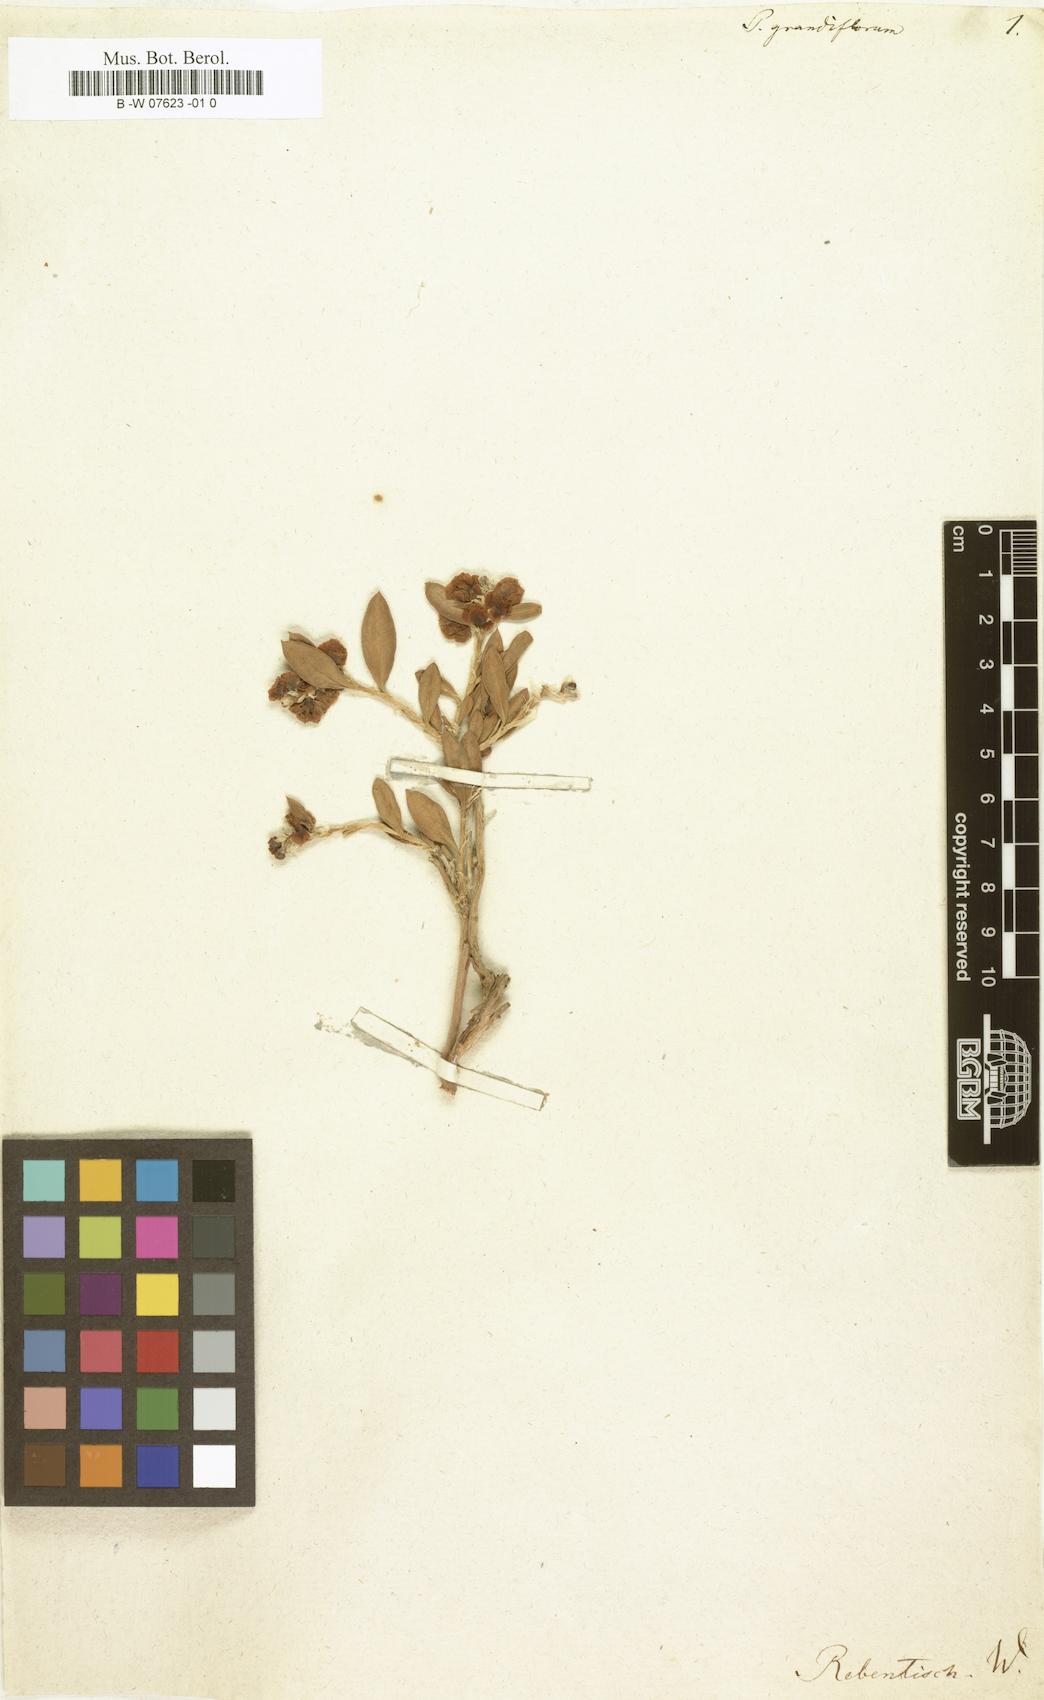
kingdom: Plantae
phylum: Tracheophyta
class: Magnoliopsida
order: Caryophyllales
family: Polygonaceae
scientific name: Polygonaceae
